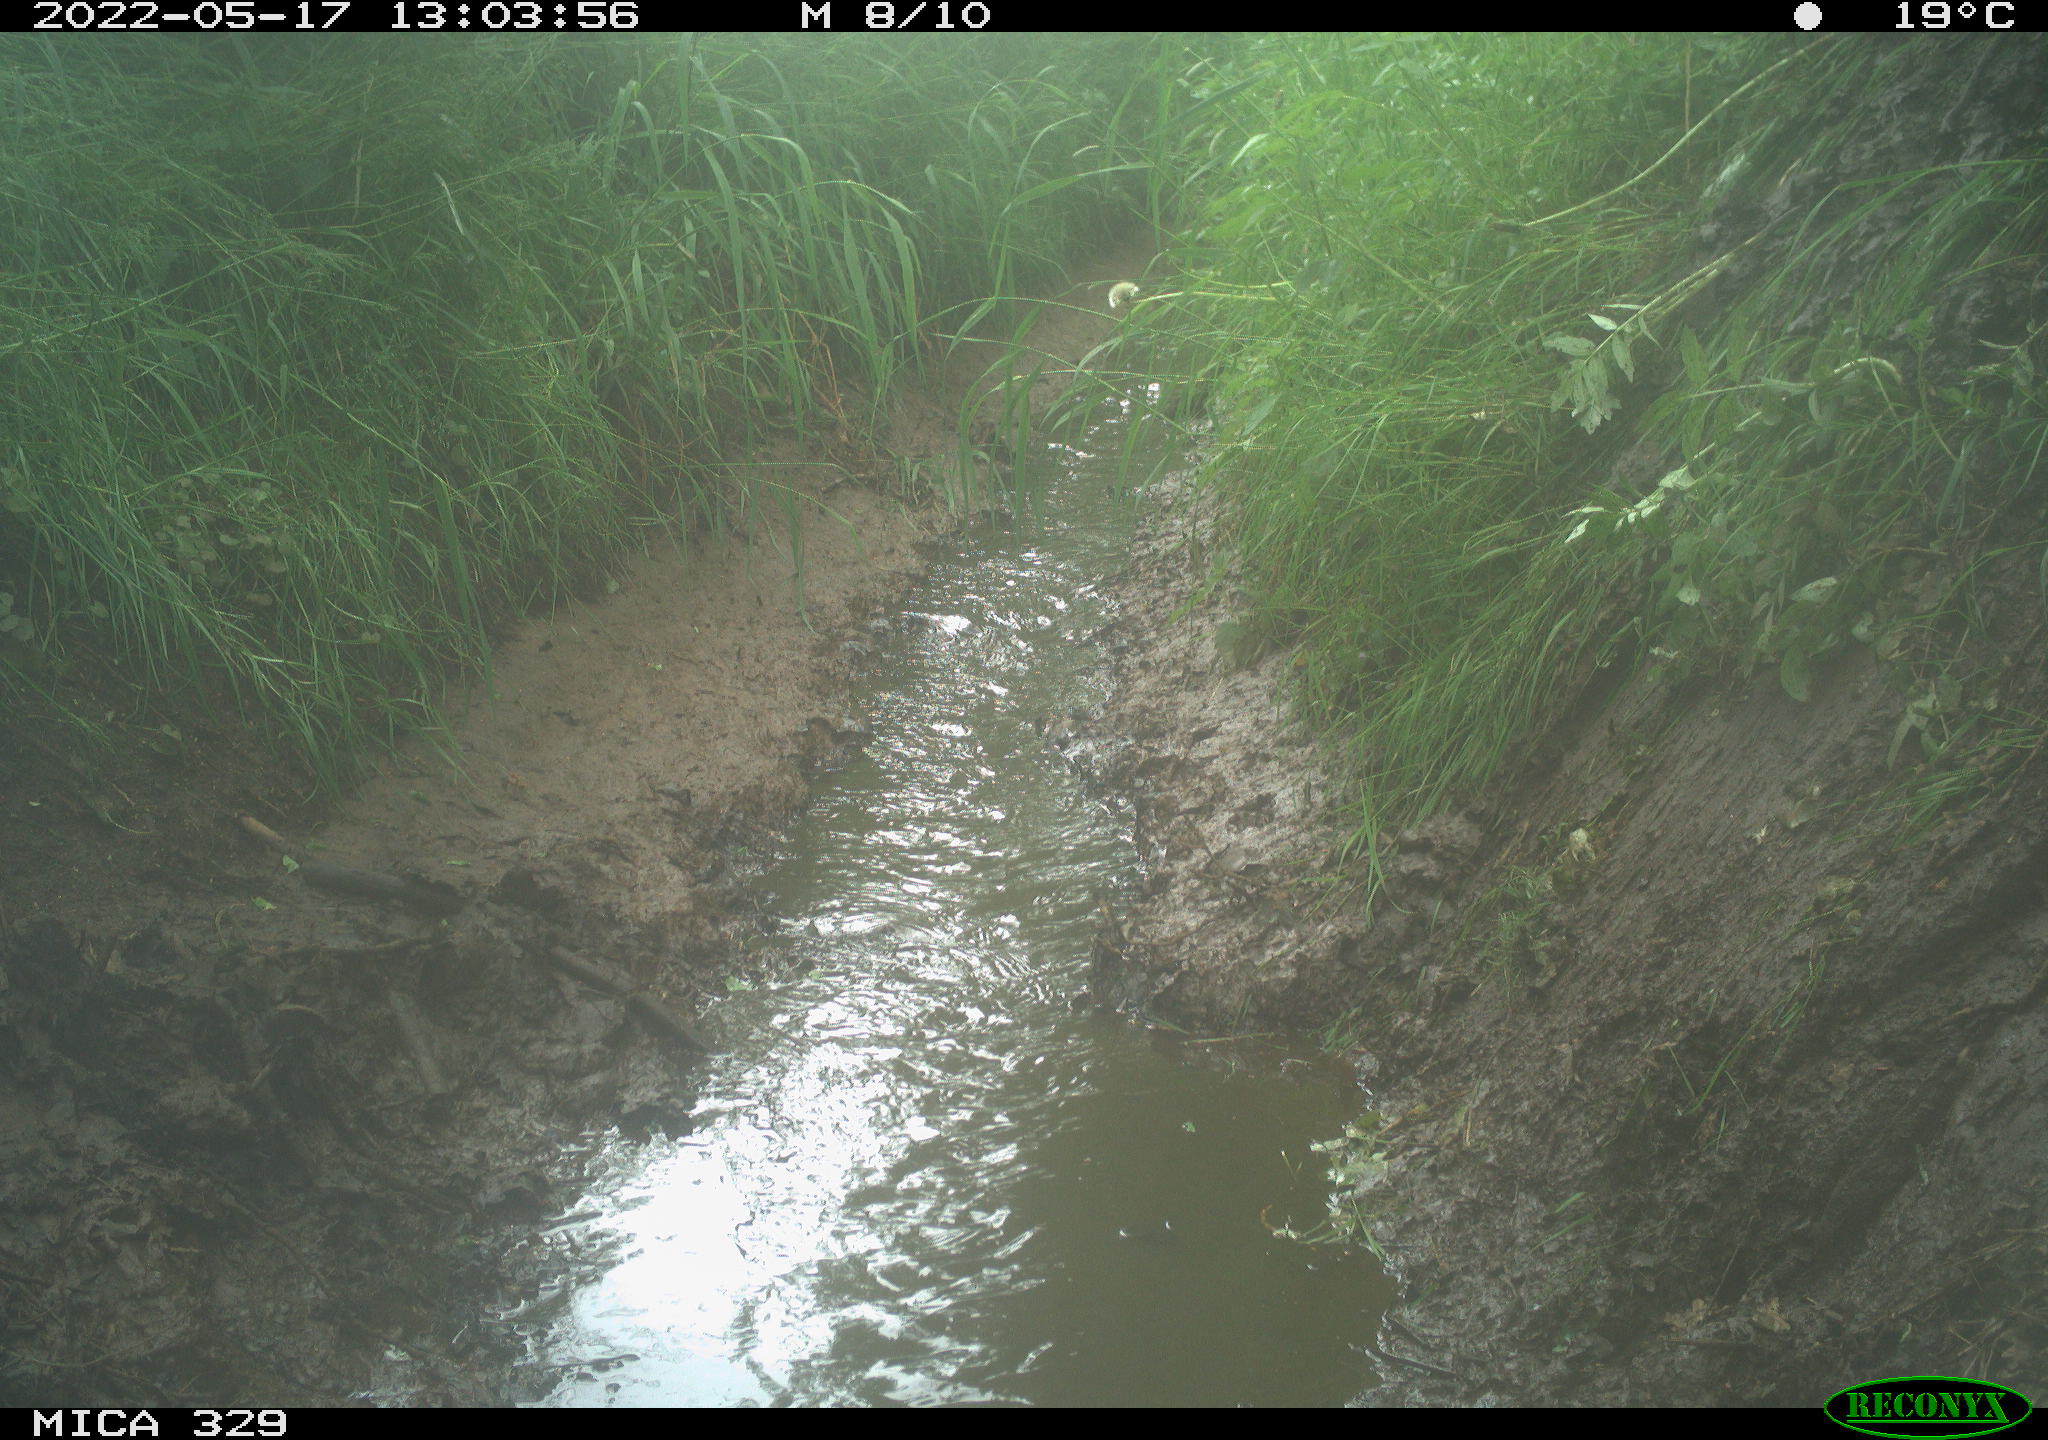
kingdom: Animalia
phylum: Chordata
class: Aves
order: Anseriformes
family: Anatidae
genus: Anas
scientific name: Anas platyrhynchos
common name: Mallard
